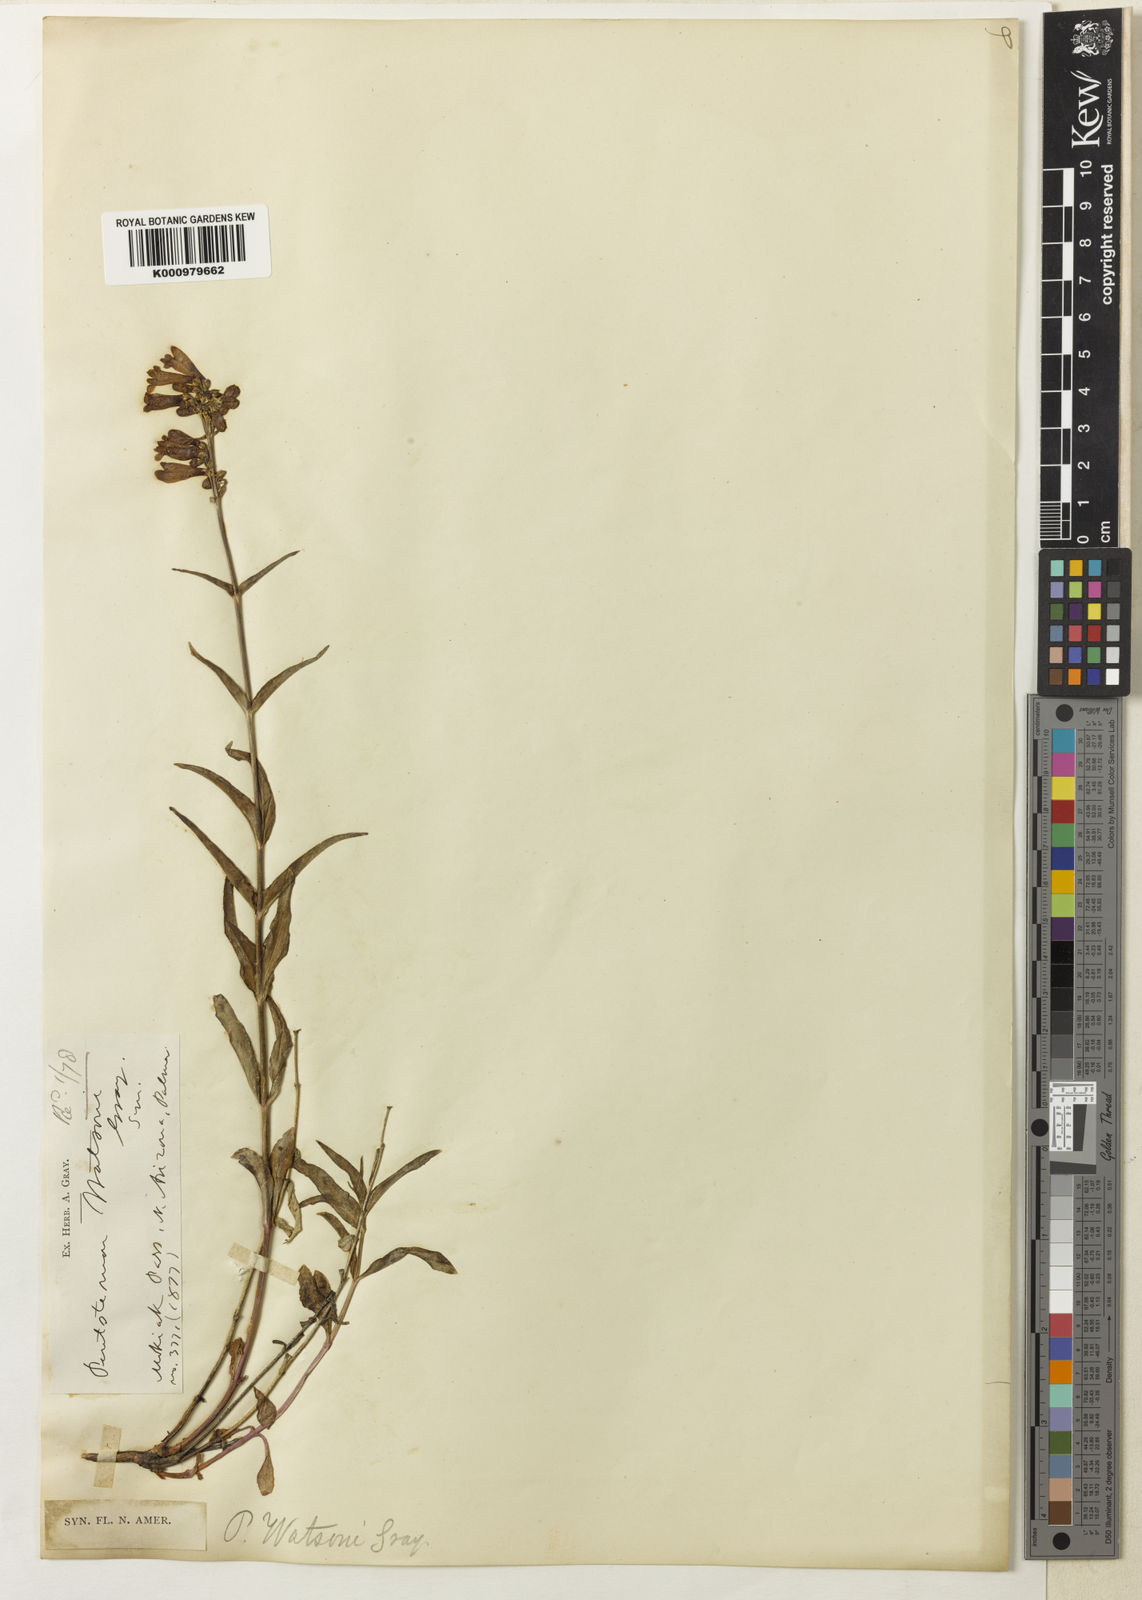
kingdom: Plantae
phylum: Tracheophyta
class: Magnoliopsida
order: Lamiales
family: Plantaginaceae
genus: Penstemon
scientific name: Penstemon watsonii
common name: Watson's penstemon
